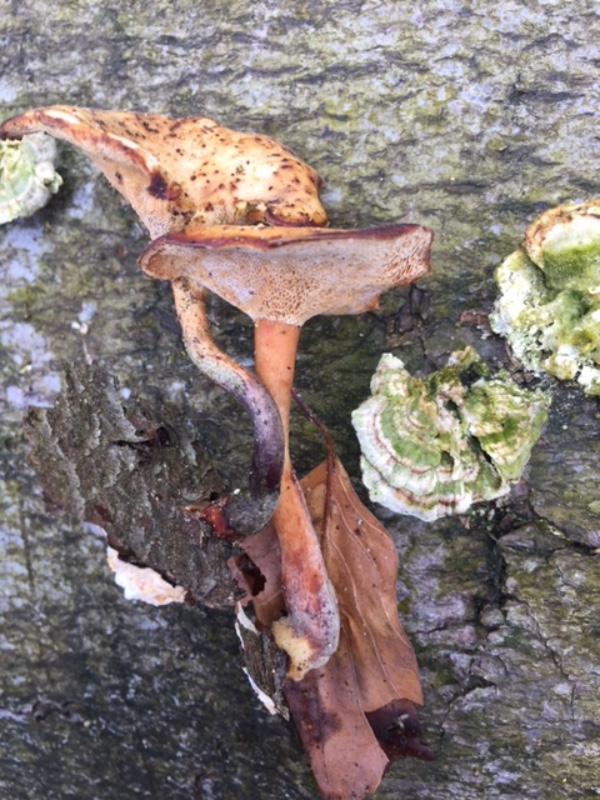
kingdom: Fungi
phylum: Basidiomycota
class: Agaricomycetes
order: Polyporales
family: Polyporaceae
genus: Cerioporus
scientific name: Cerioporus varius
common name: foranderlig stilkporesvamp
